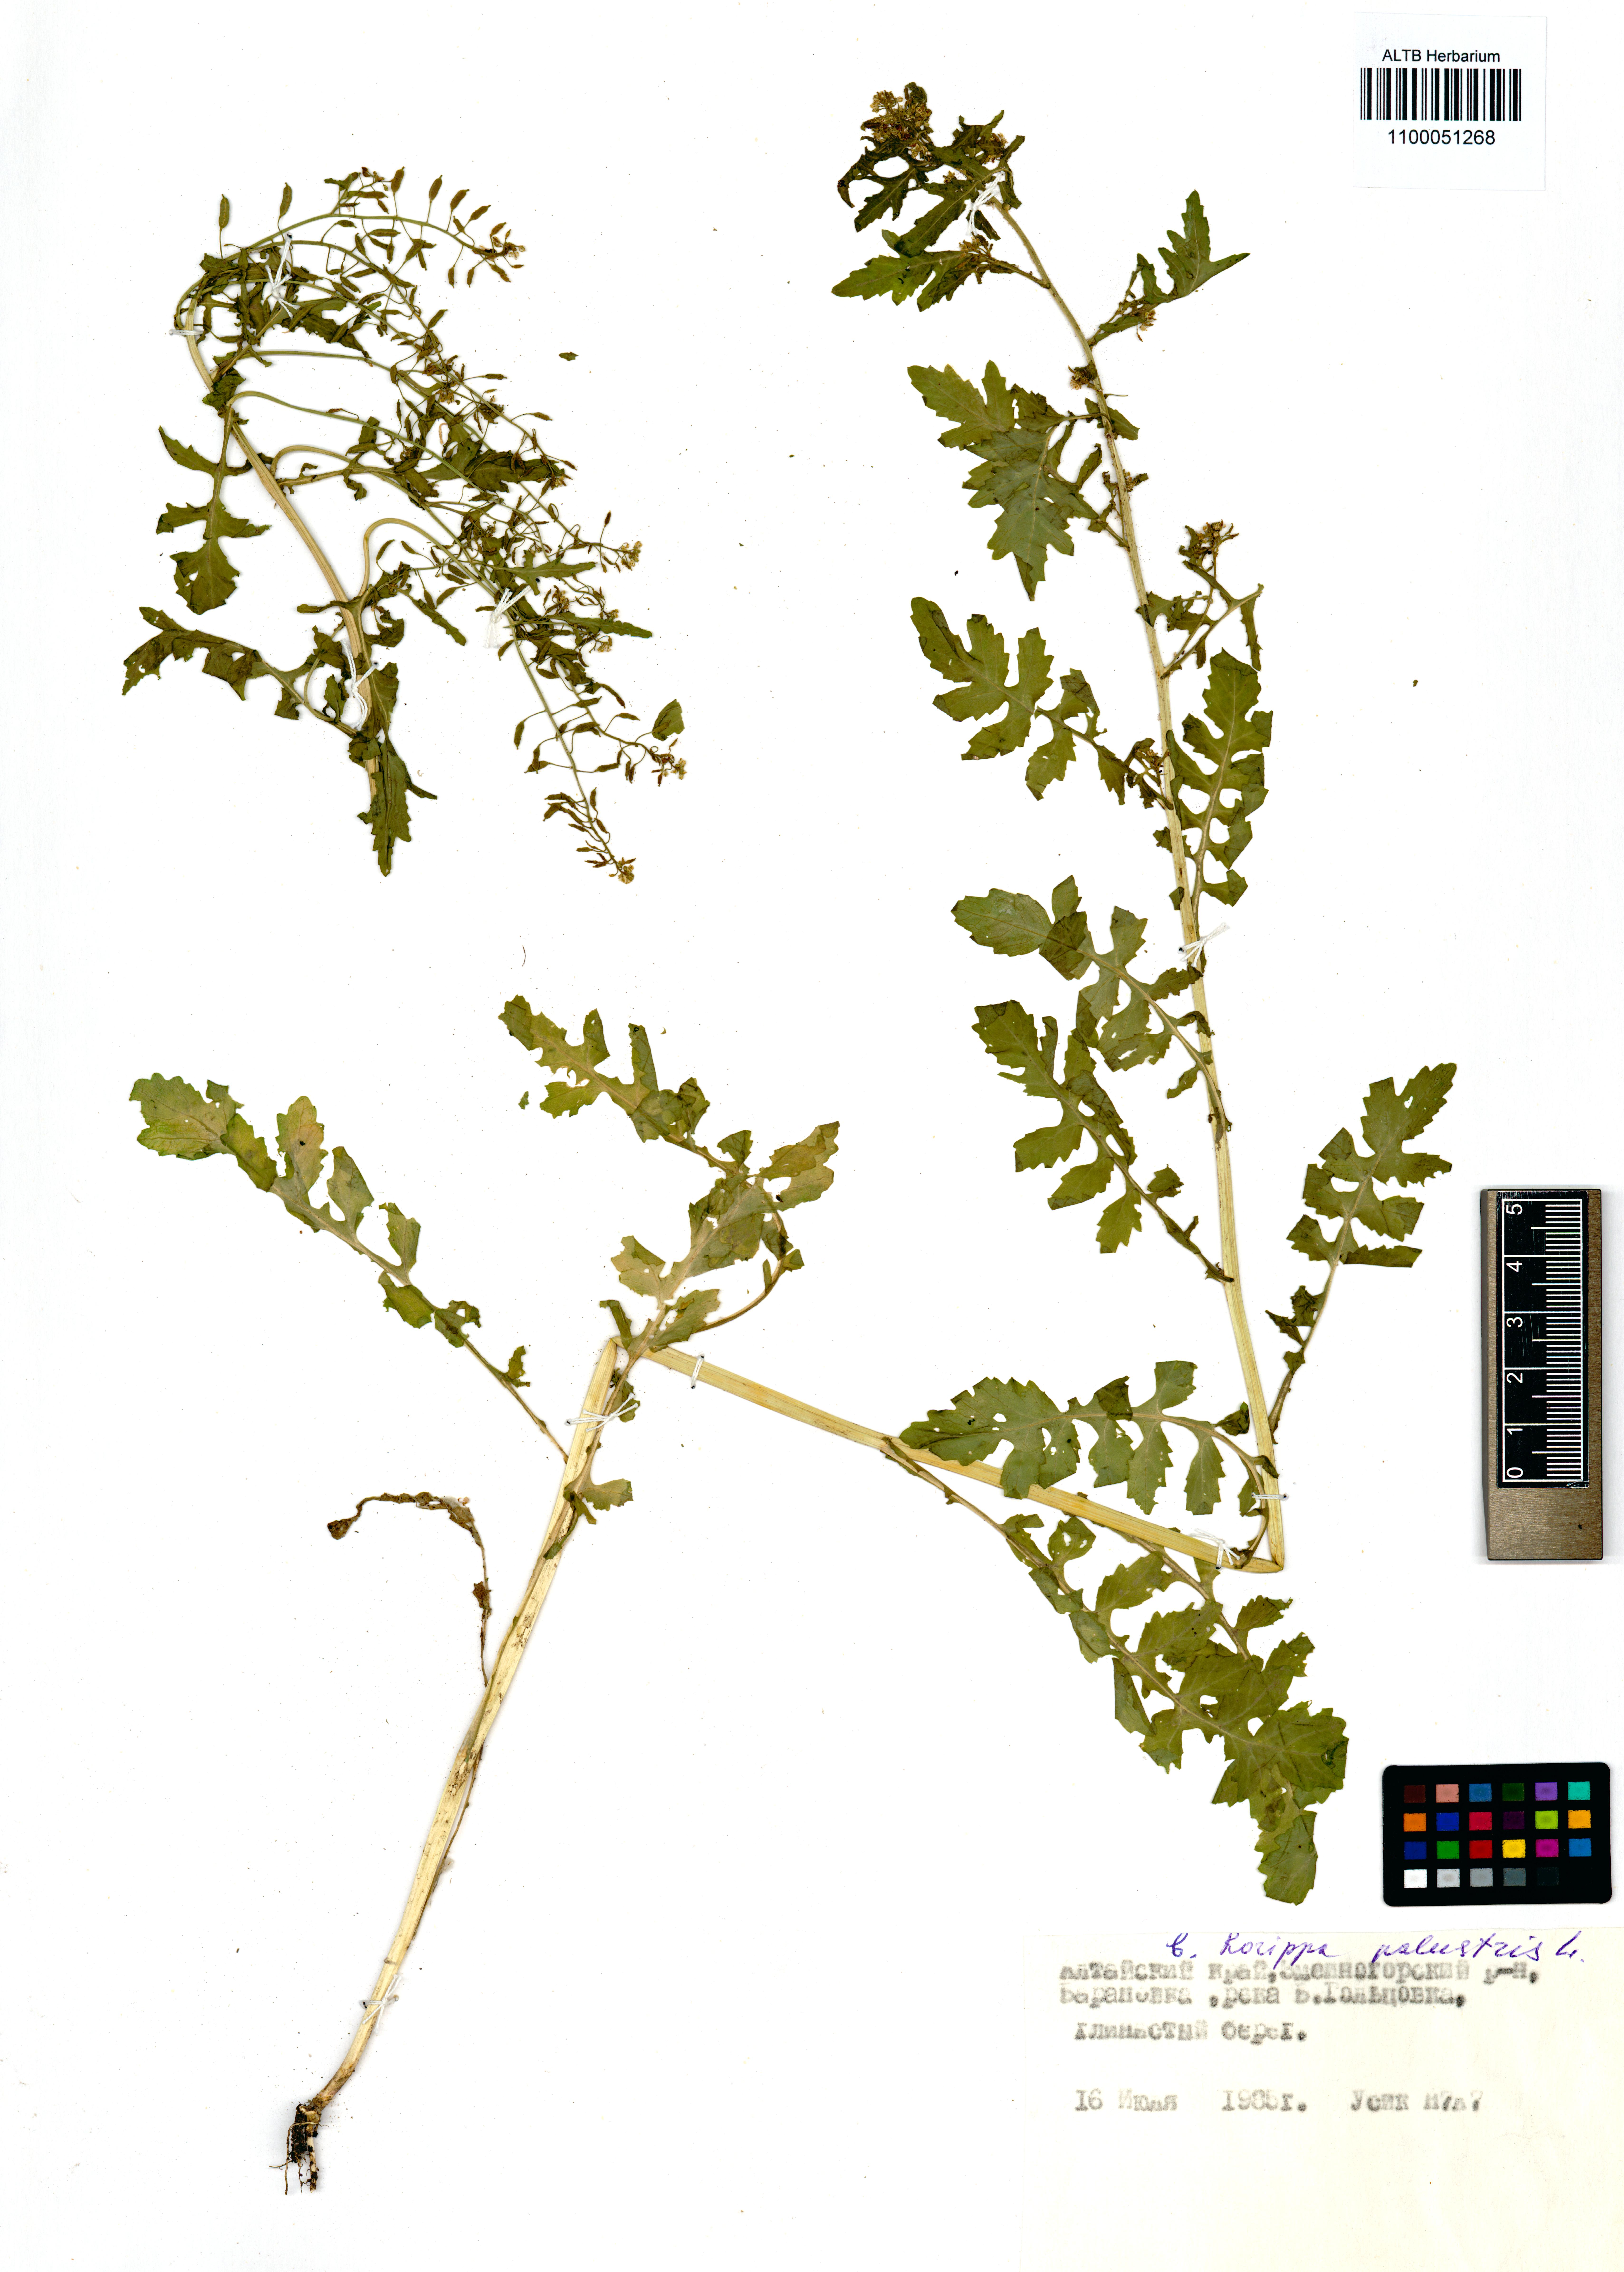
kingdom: Plantae
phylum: Tracheophyta
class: Magnoliopsida
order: Brassicales
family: Brassicaceae
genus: Rorippa
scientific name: Rorippa palustris
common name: Marsh yellow-cress
